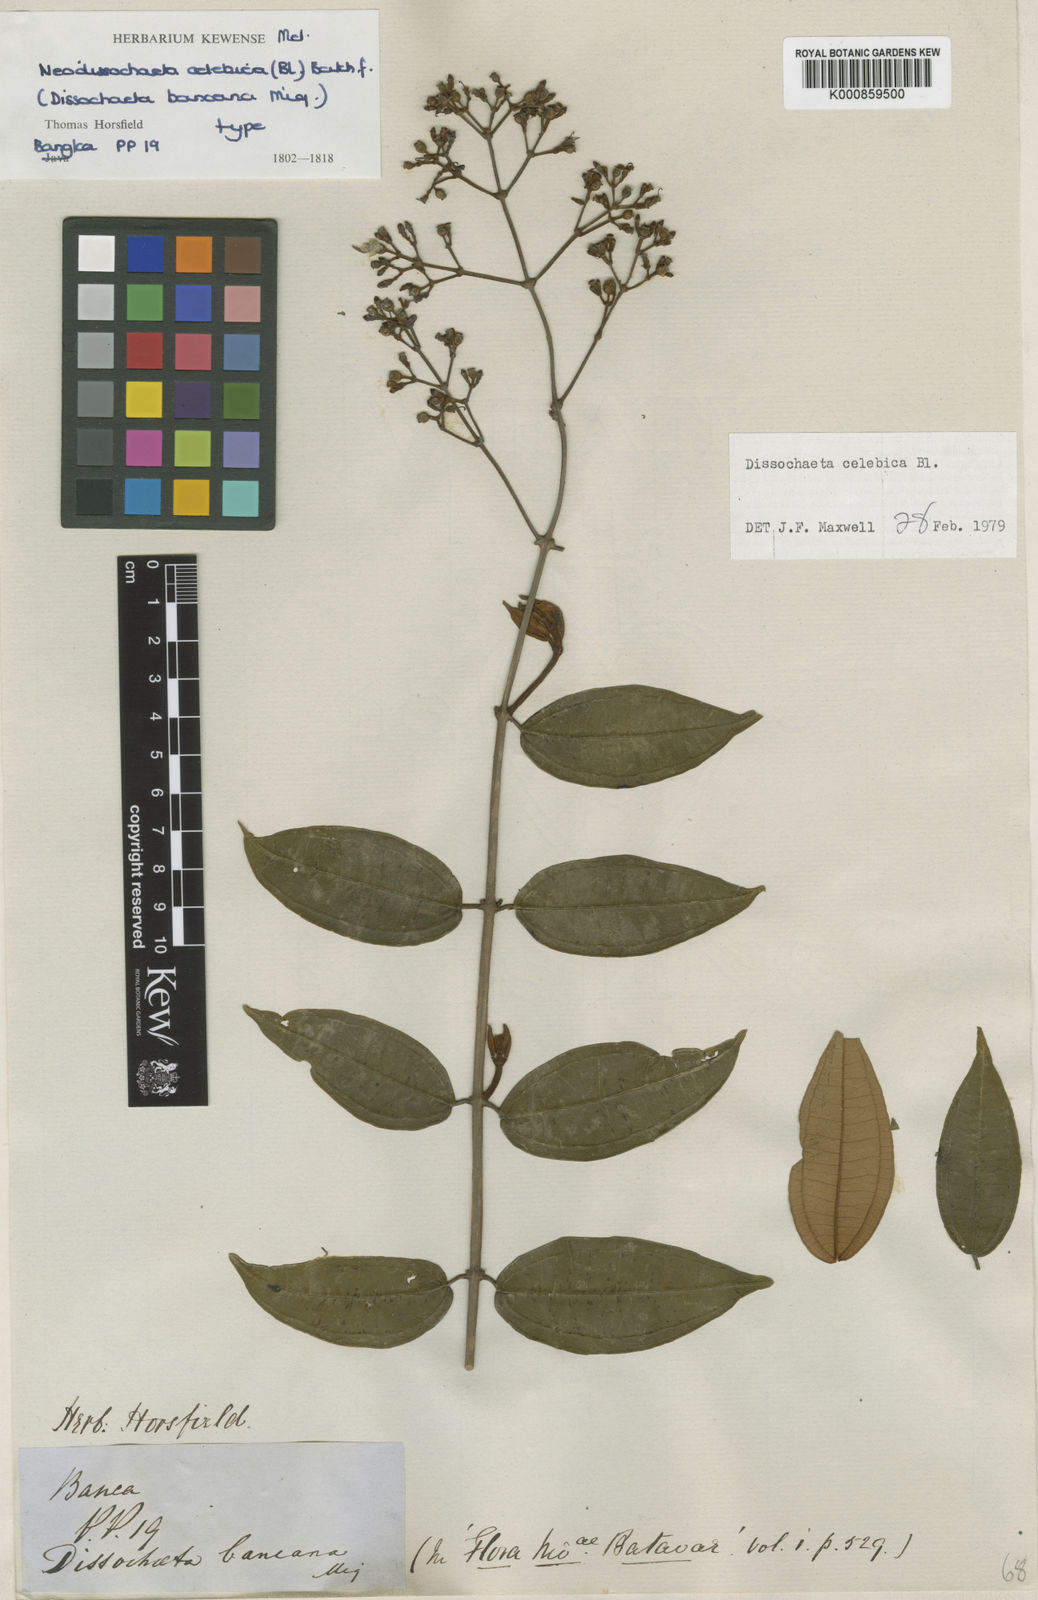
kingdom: Plantae
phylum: Tracheophyta
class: Magnoliopsida
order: Myrtales
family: Melastomataceae
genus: Dissochaeta
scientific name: Dissochaeta celebica
